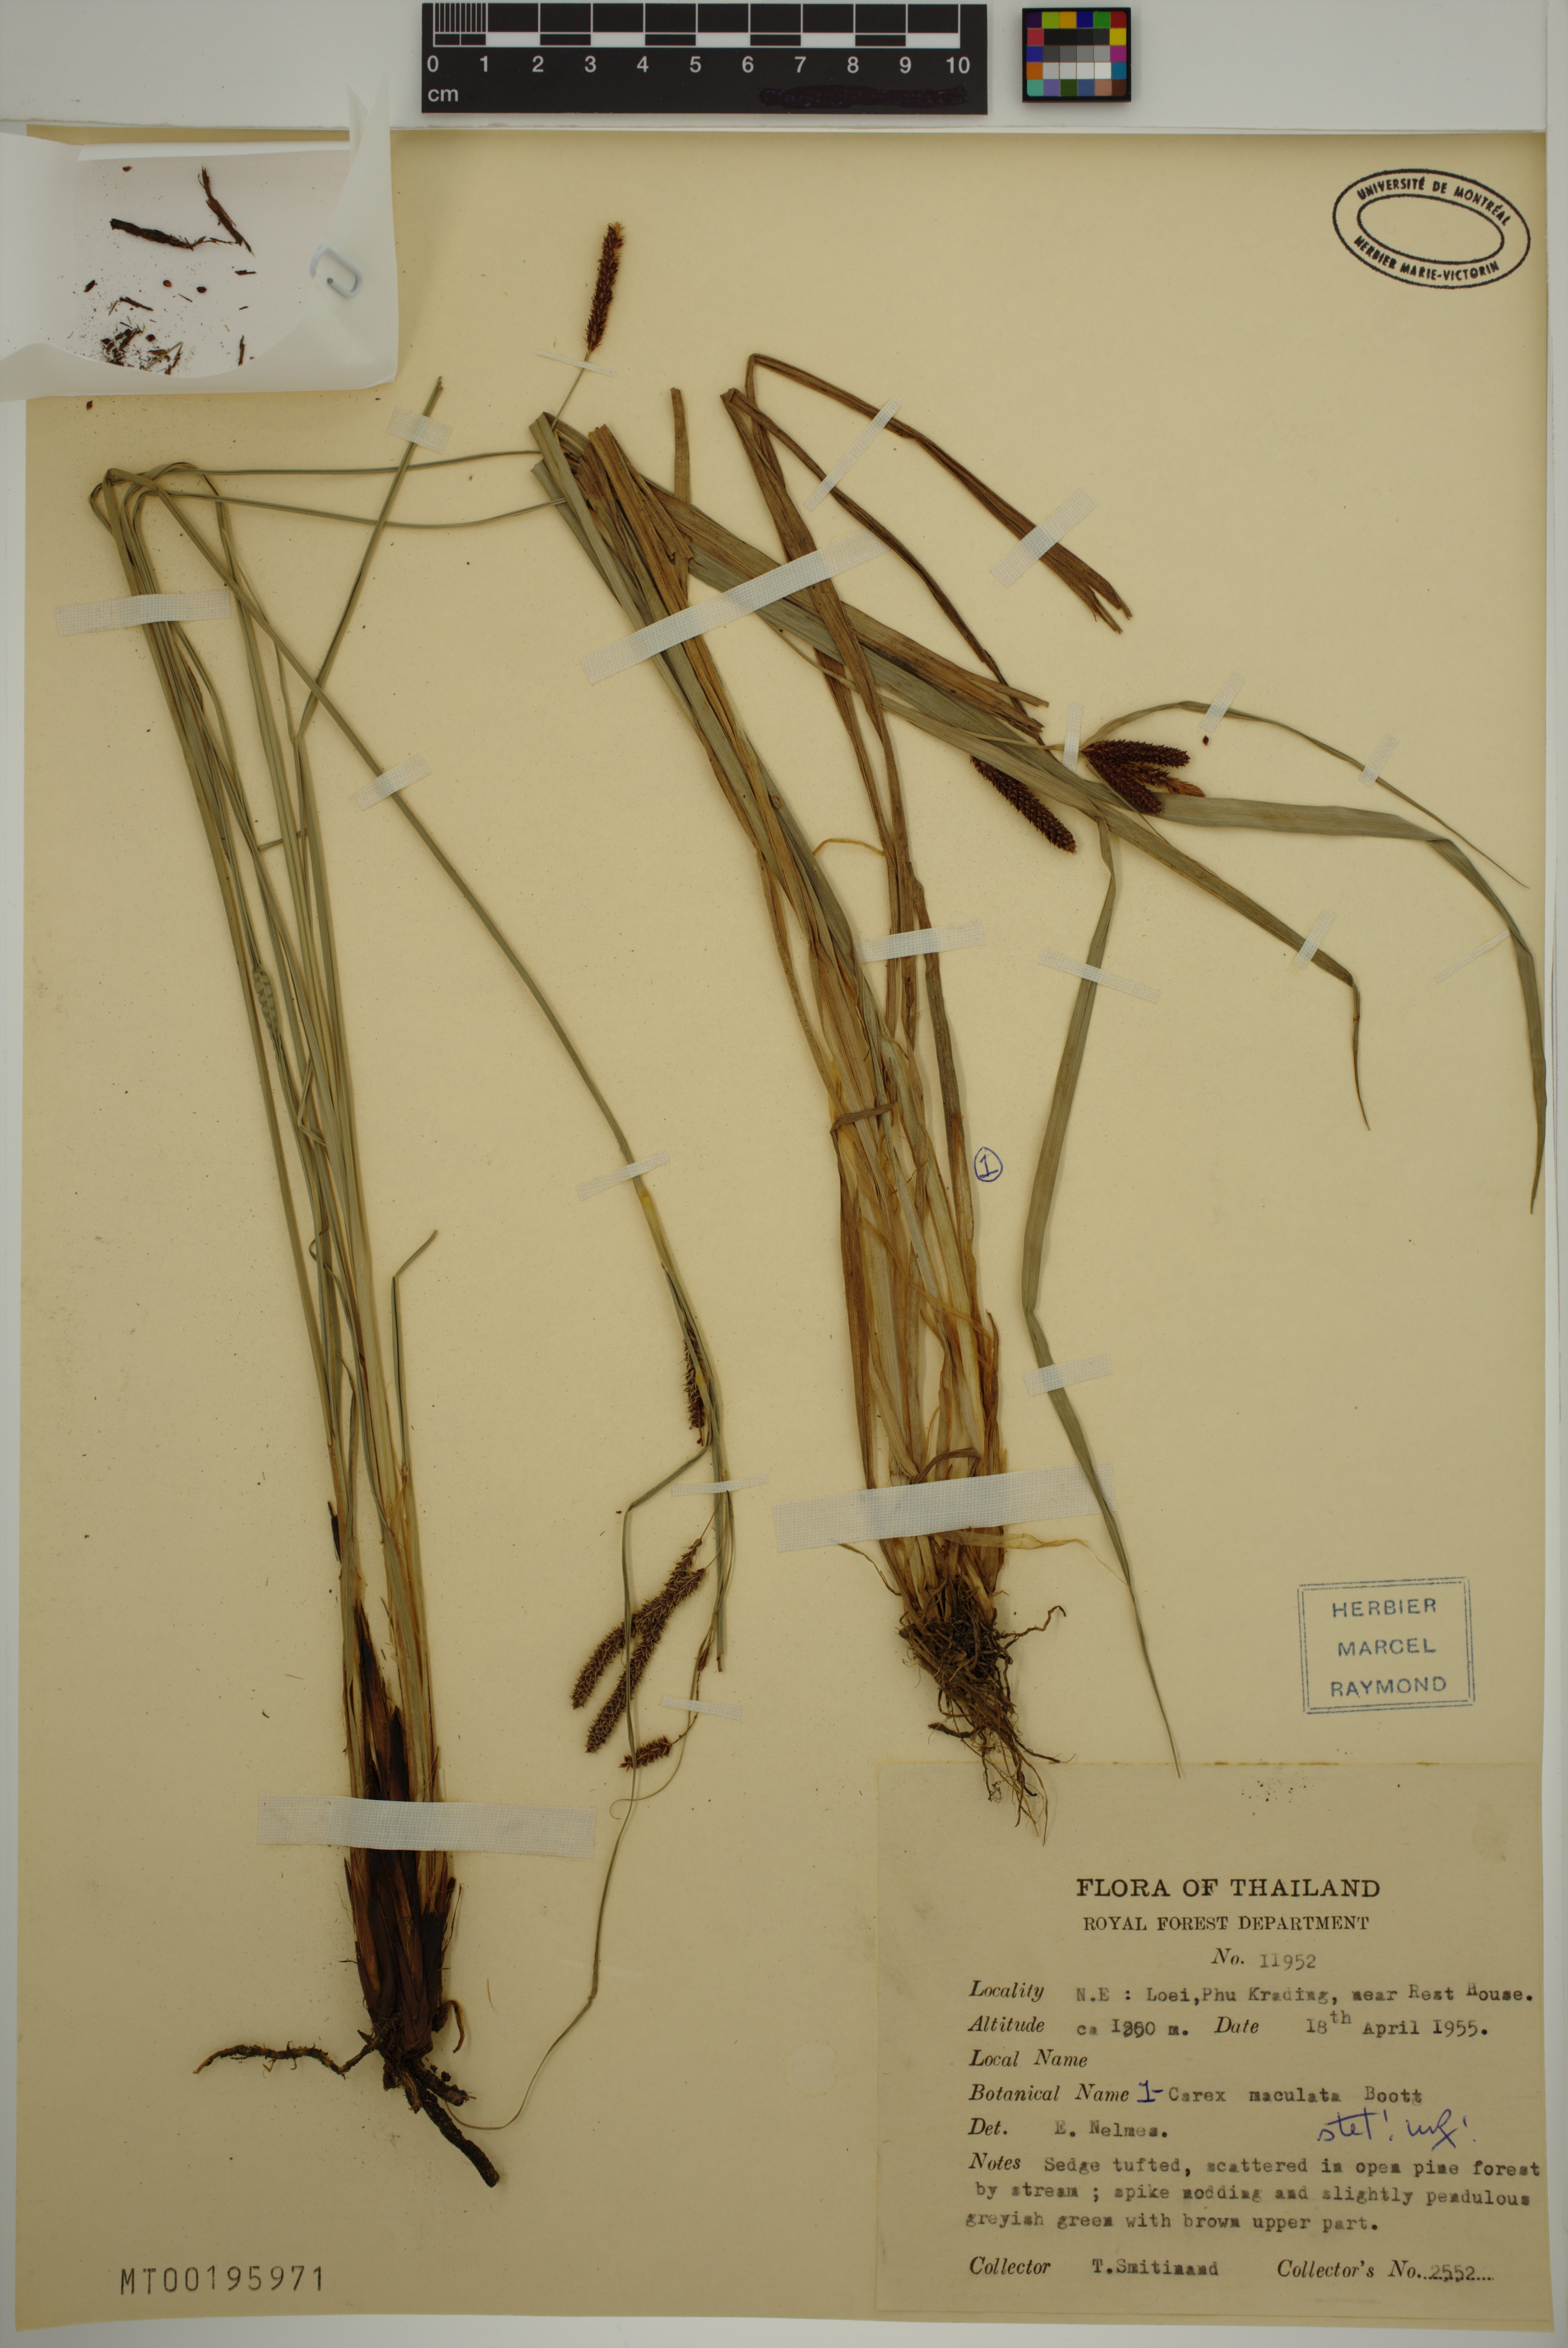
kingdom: Plantae
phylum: Tracheophyta
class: Liliopsida
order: Poales
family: Cyperaceae
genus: Carex
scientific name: Carex maculata
